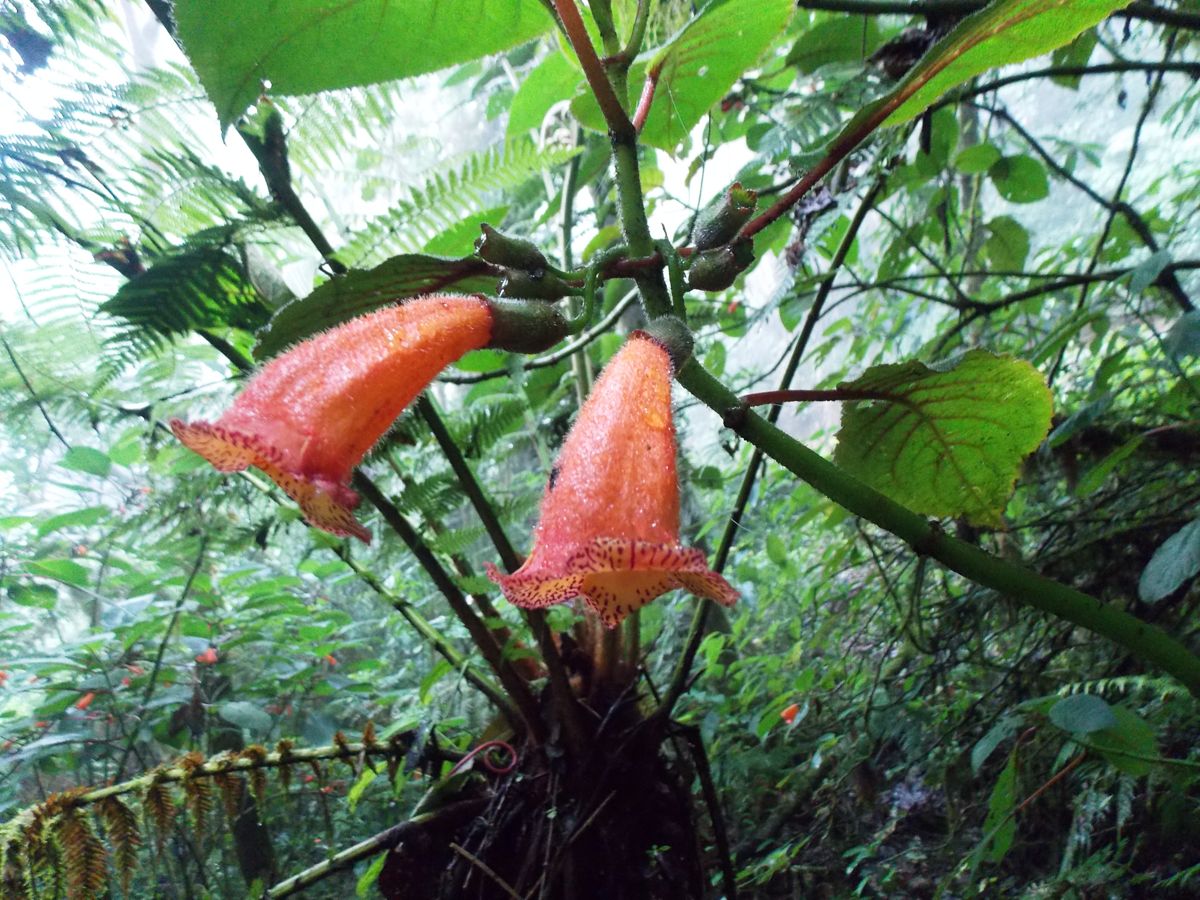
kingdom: Plantae
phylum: Tracheophyta
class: Magnoliopsida
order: Lamiales
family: Gesneriaceae
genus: Solenophora
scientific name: Solenophora calycosa
